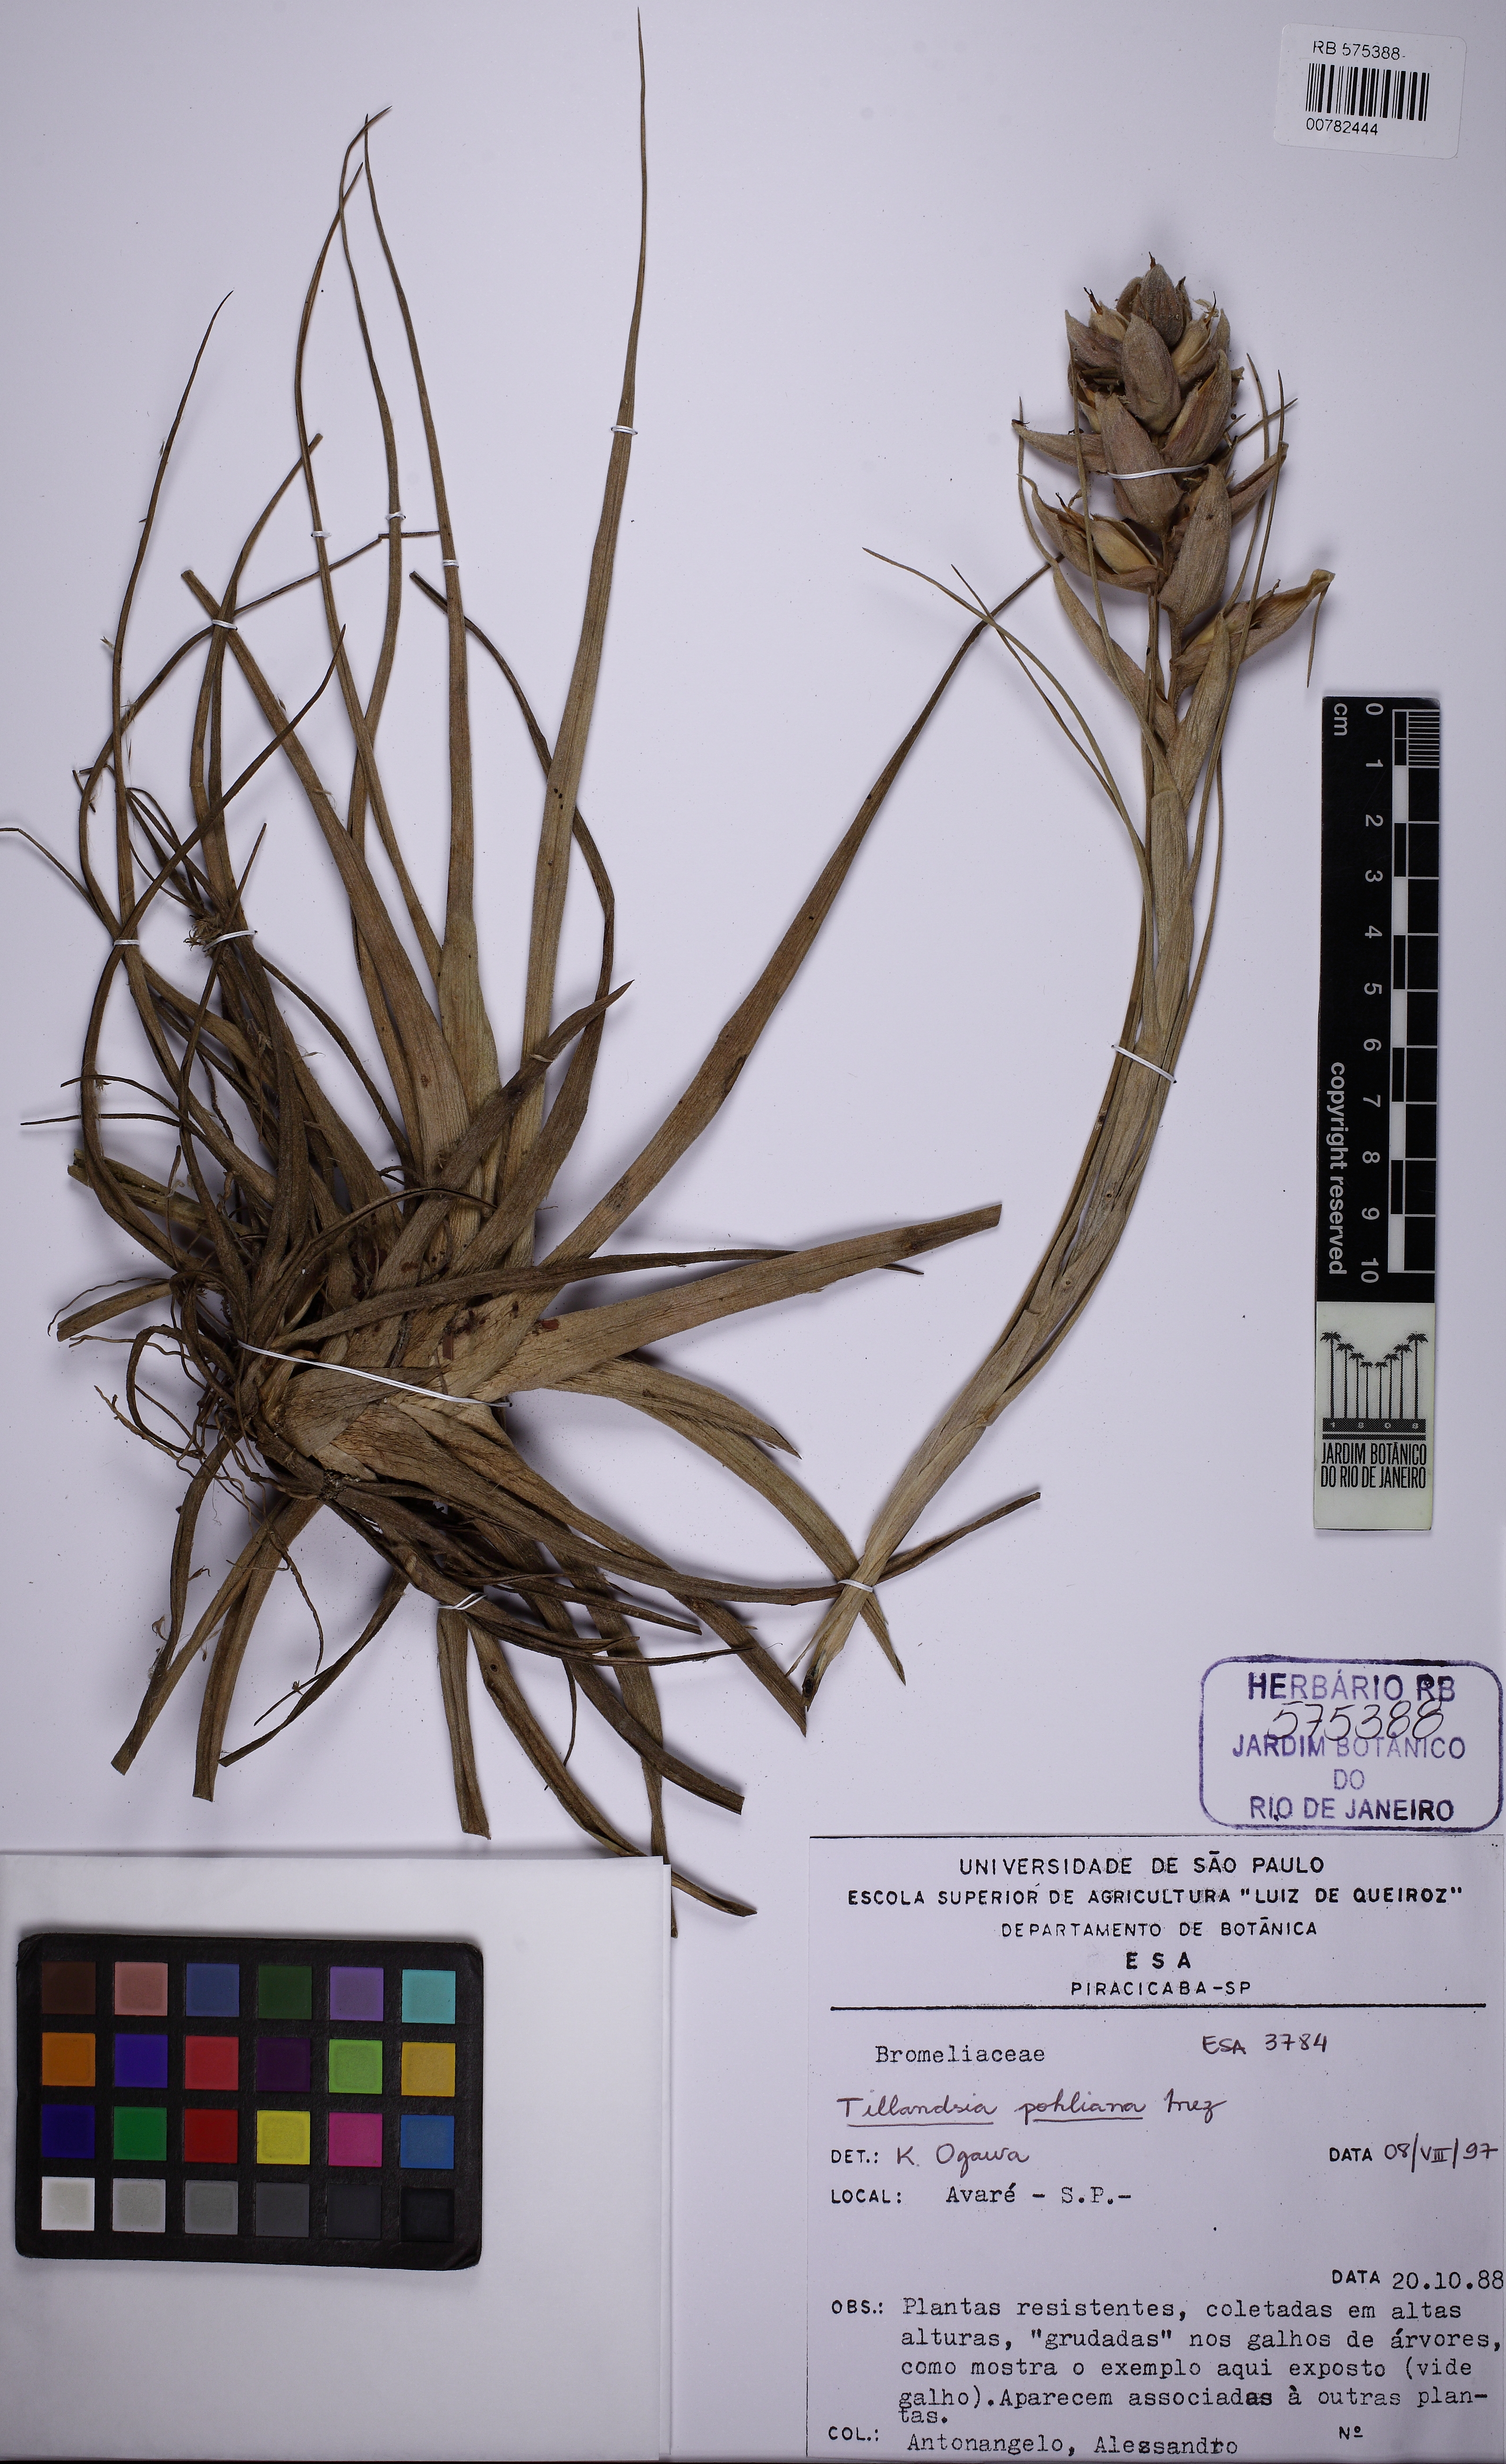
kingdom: Plantae
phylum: Tracheophyta
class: Liliopsida
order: Poales
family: Bromeliaceae
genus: Tillandsia
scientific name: Tillandsia pohliana
